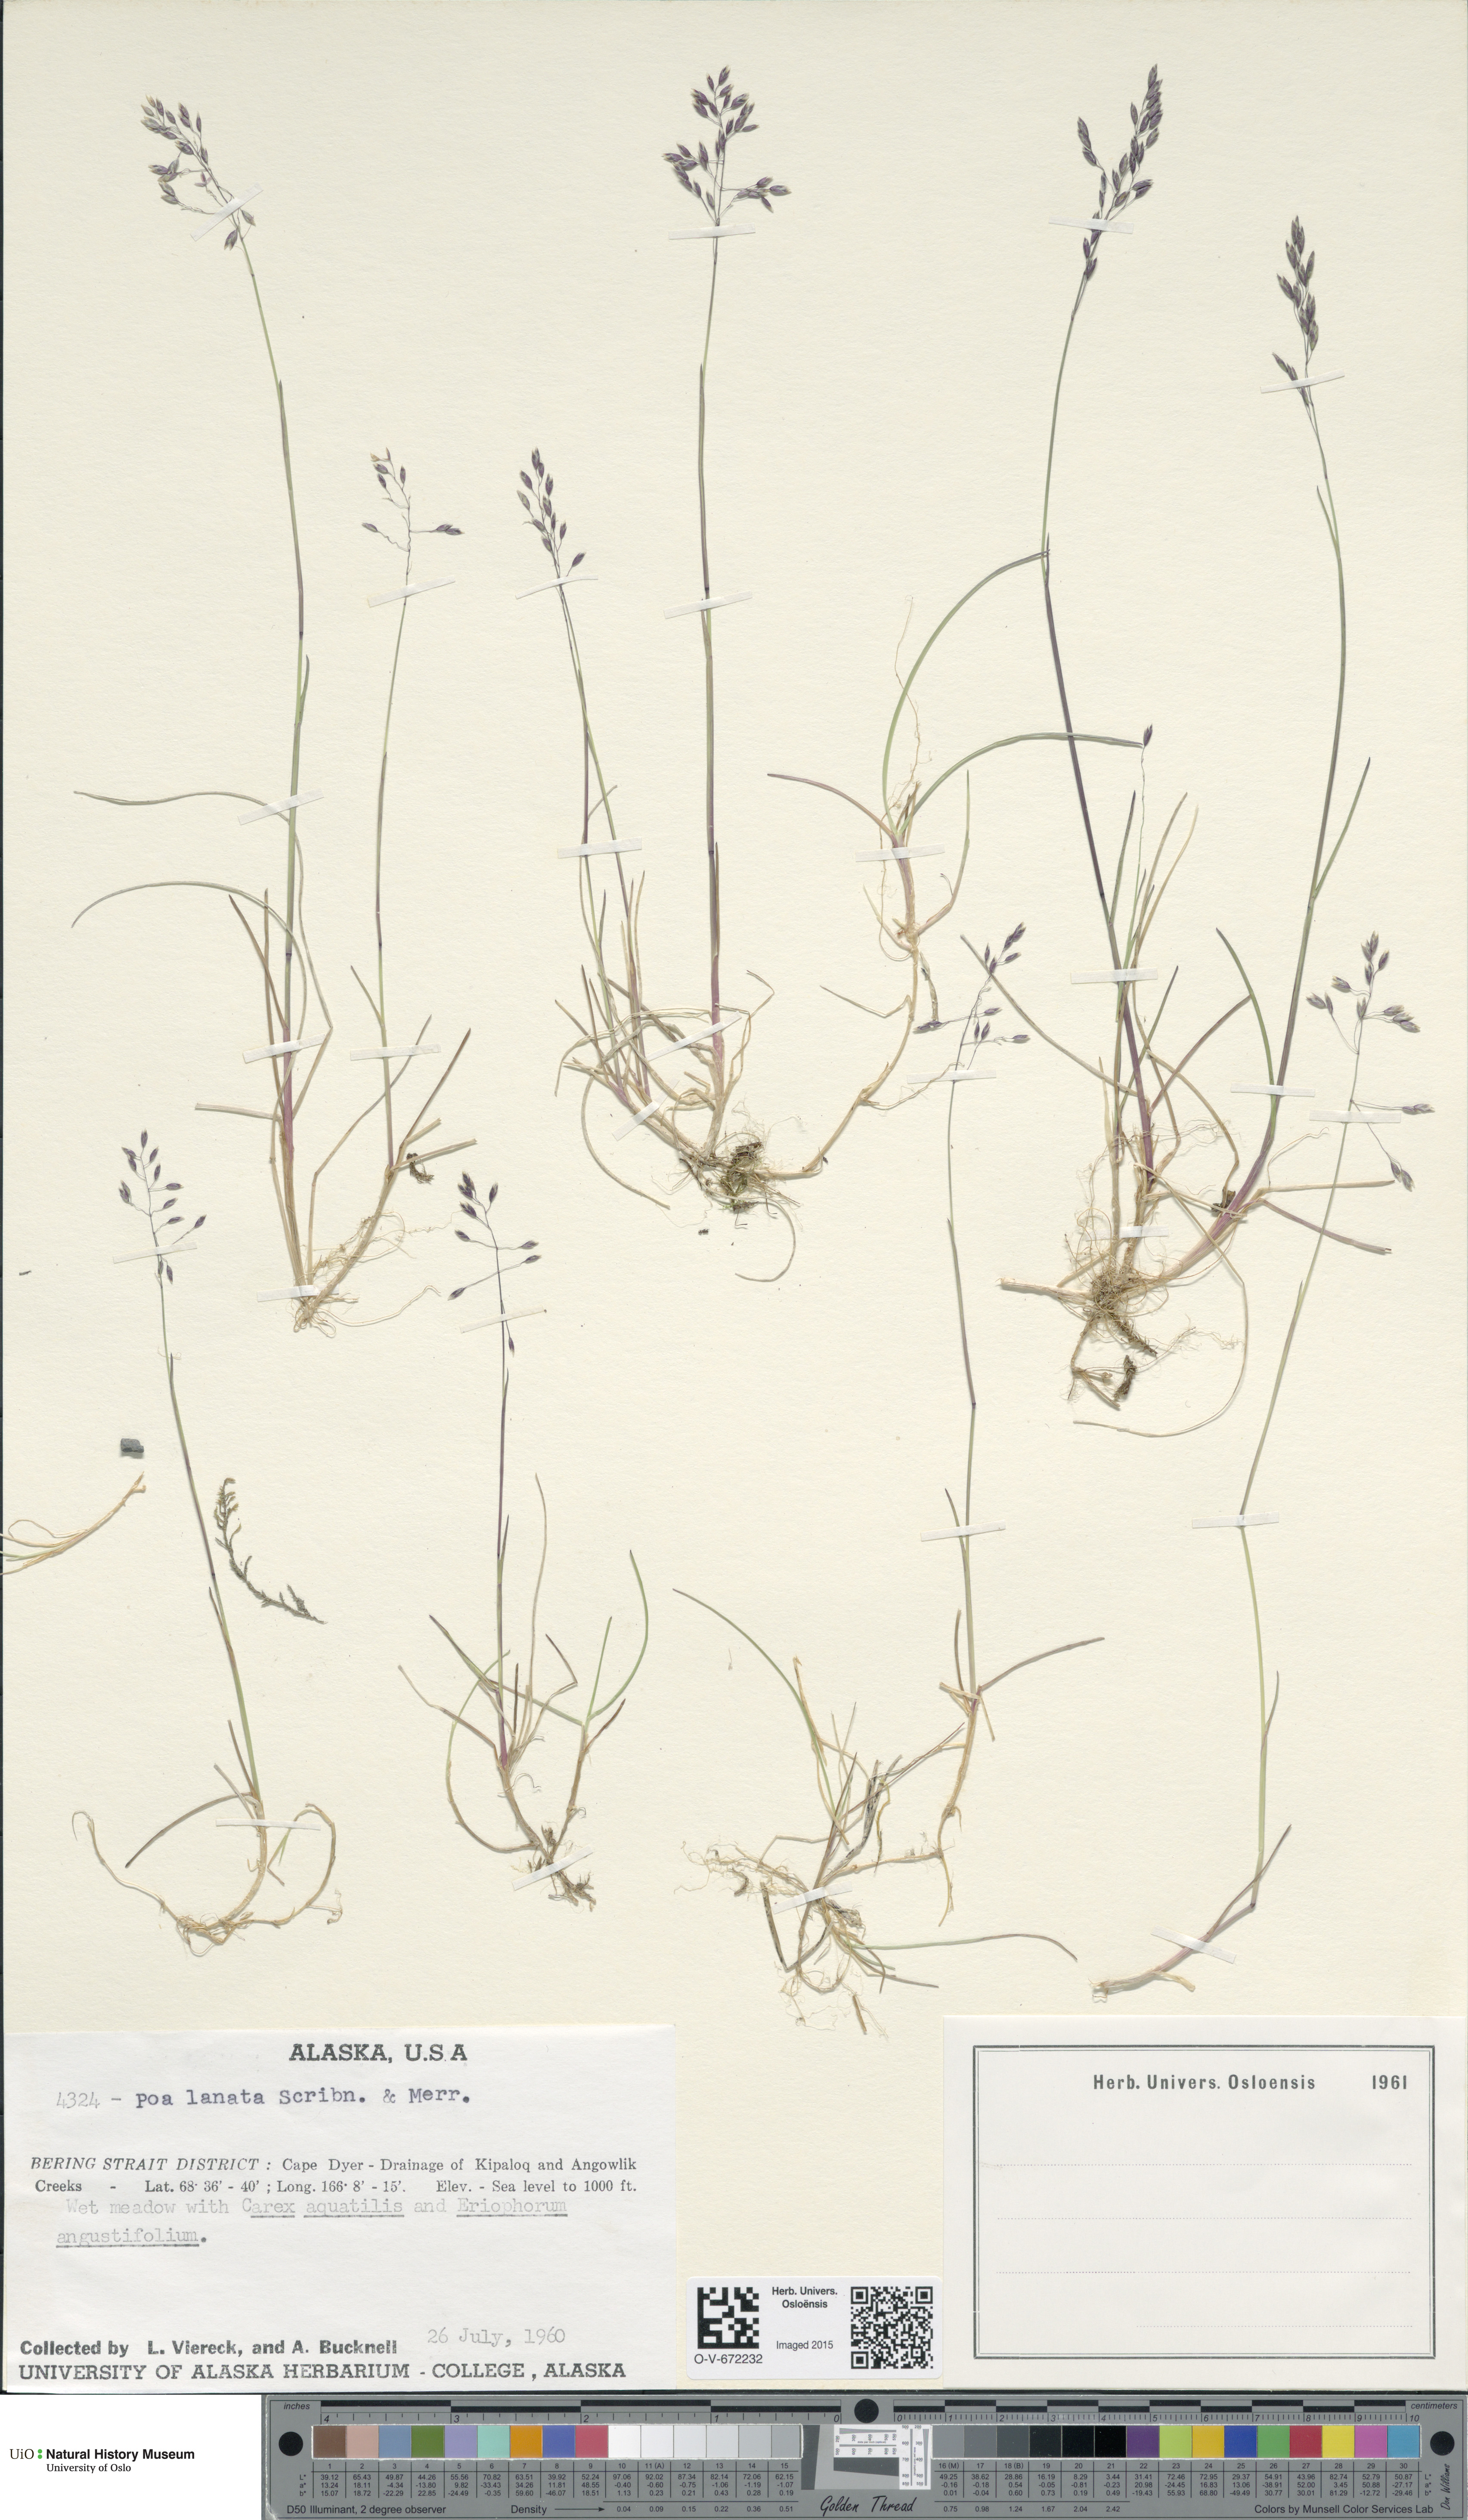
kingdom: Plantae
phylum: Tracheophyta
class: Liliopsida
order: Poales
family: Poaceae
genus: Poa
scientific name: Poa lanata
